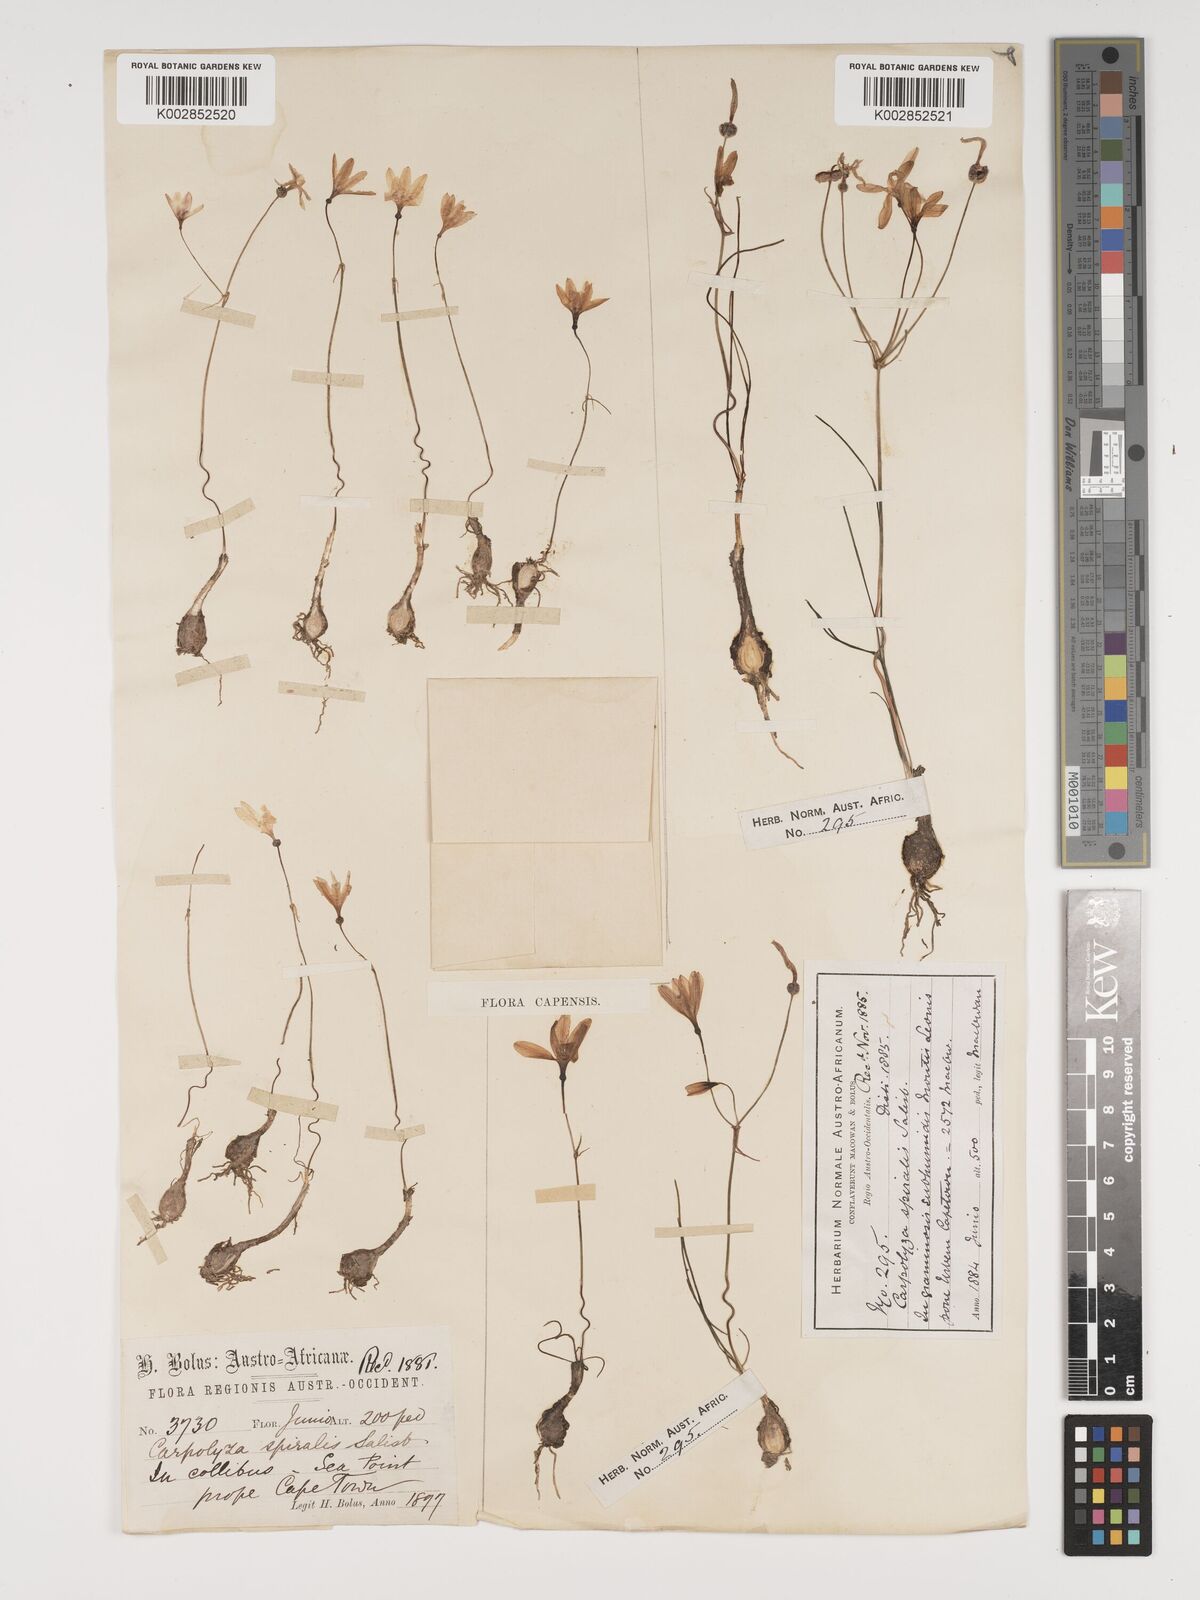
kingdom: Plantae
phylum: Tracheophyta
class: Liliopsida
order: Asparagales
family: Amaryllidaceae
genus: Strumaria
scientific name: Strumaria spiralis
